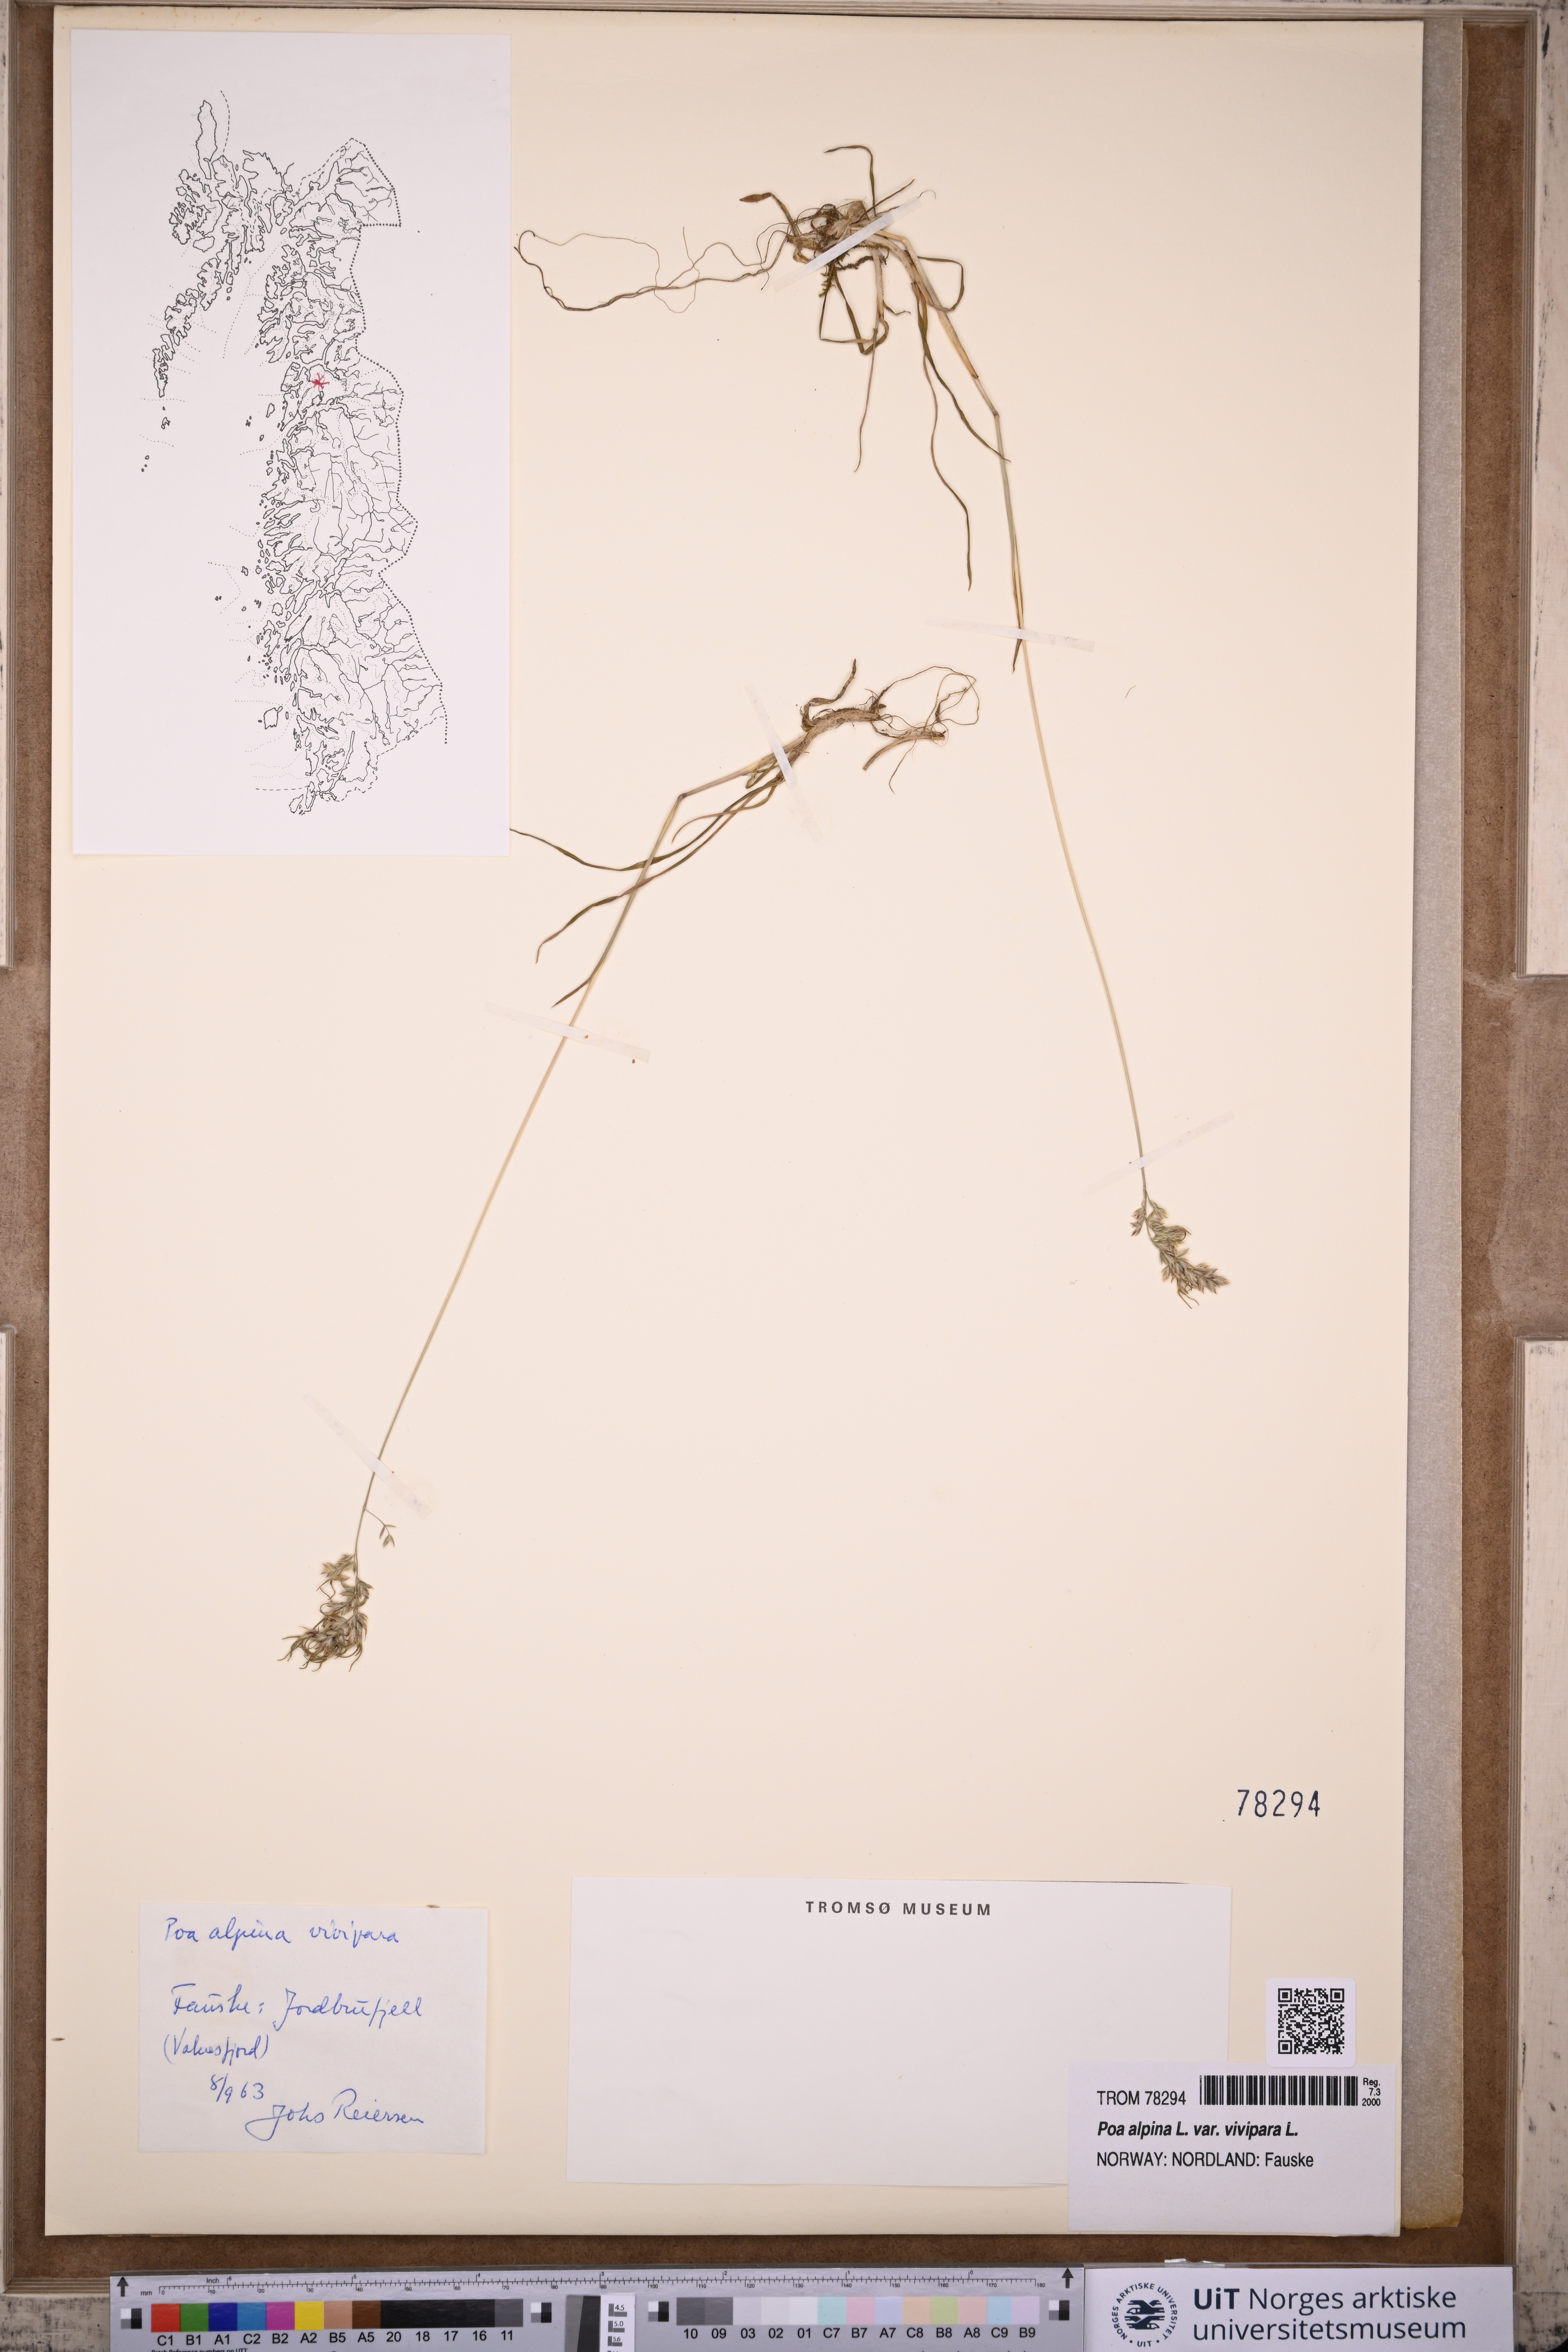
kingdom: Plantae
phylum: Tracheophyta
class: Liliopsida
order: Poales
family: Poaceae
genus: Poa
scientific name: Poa alpina
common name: Alpine bluegrass
